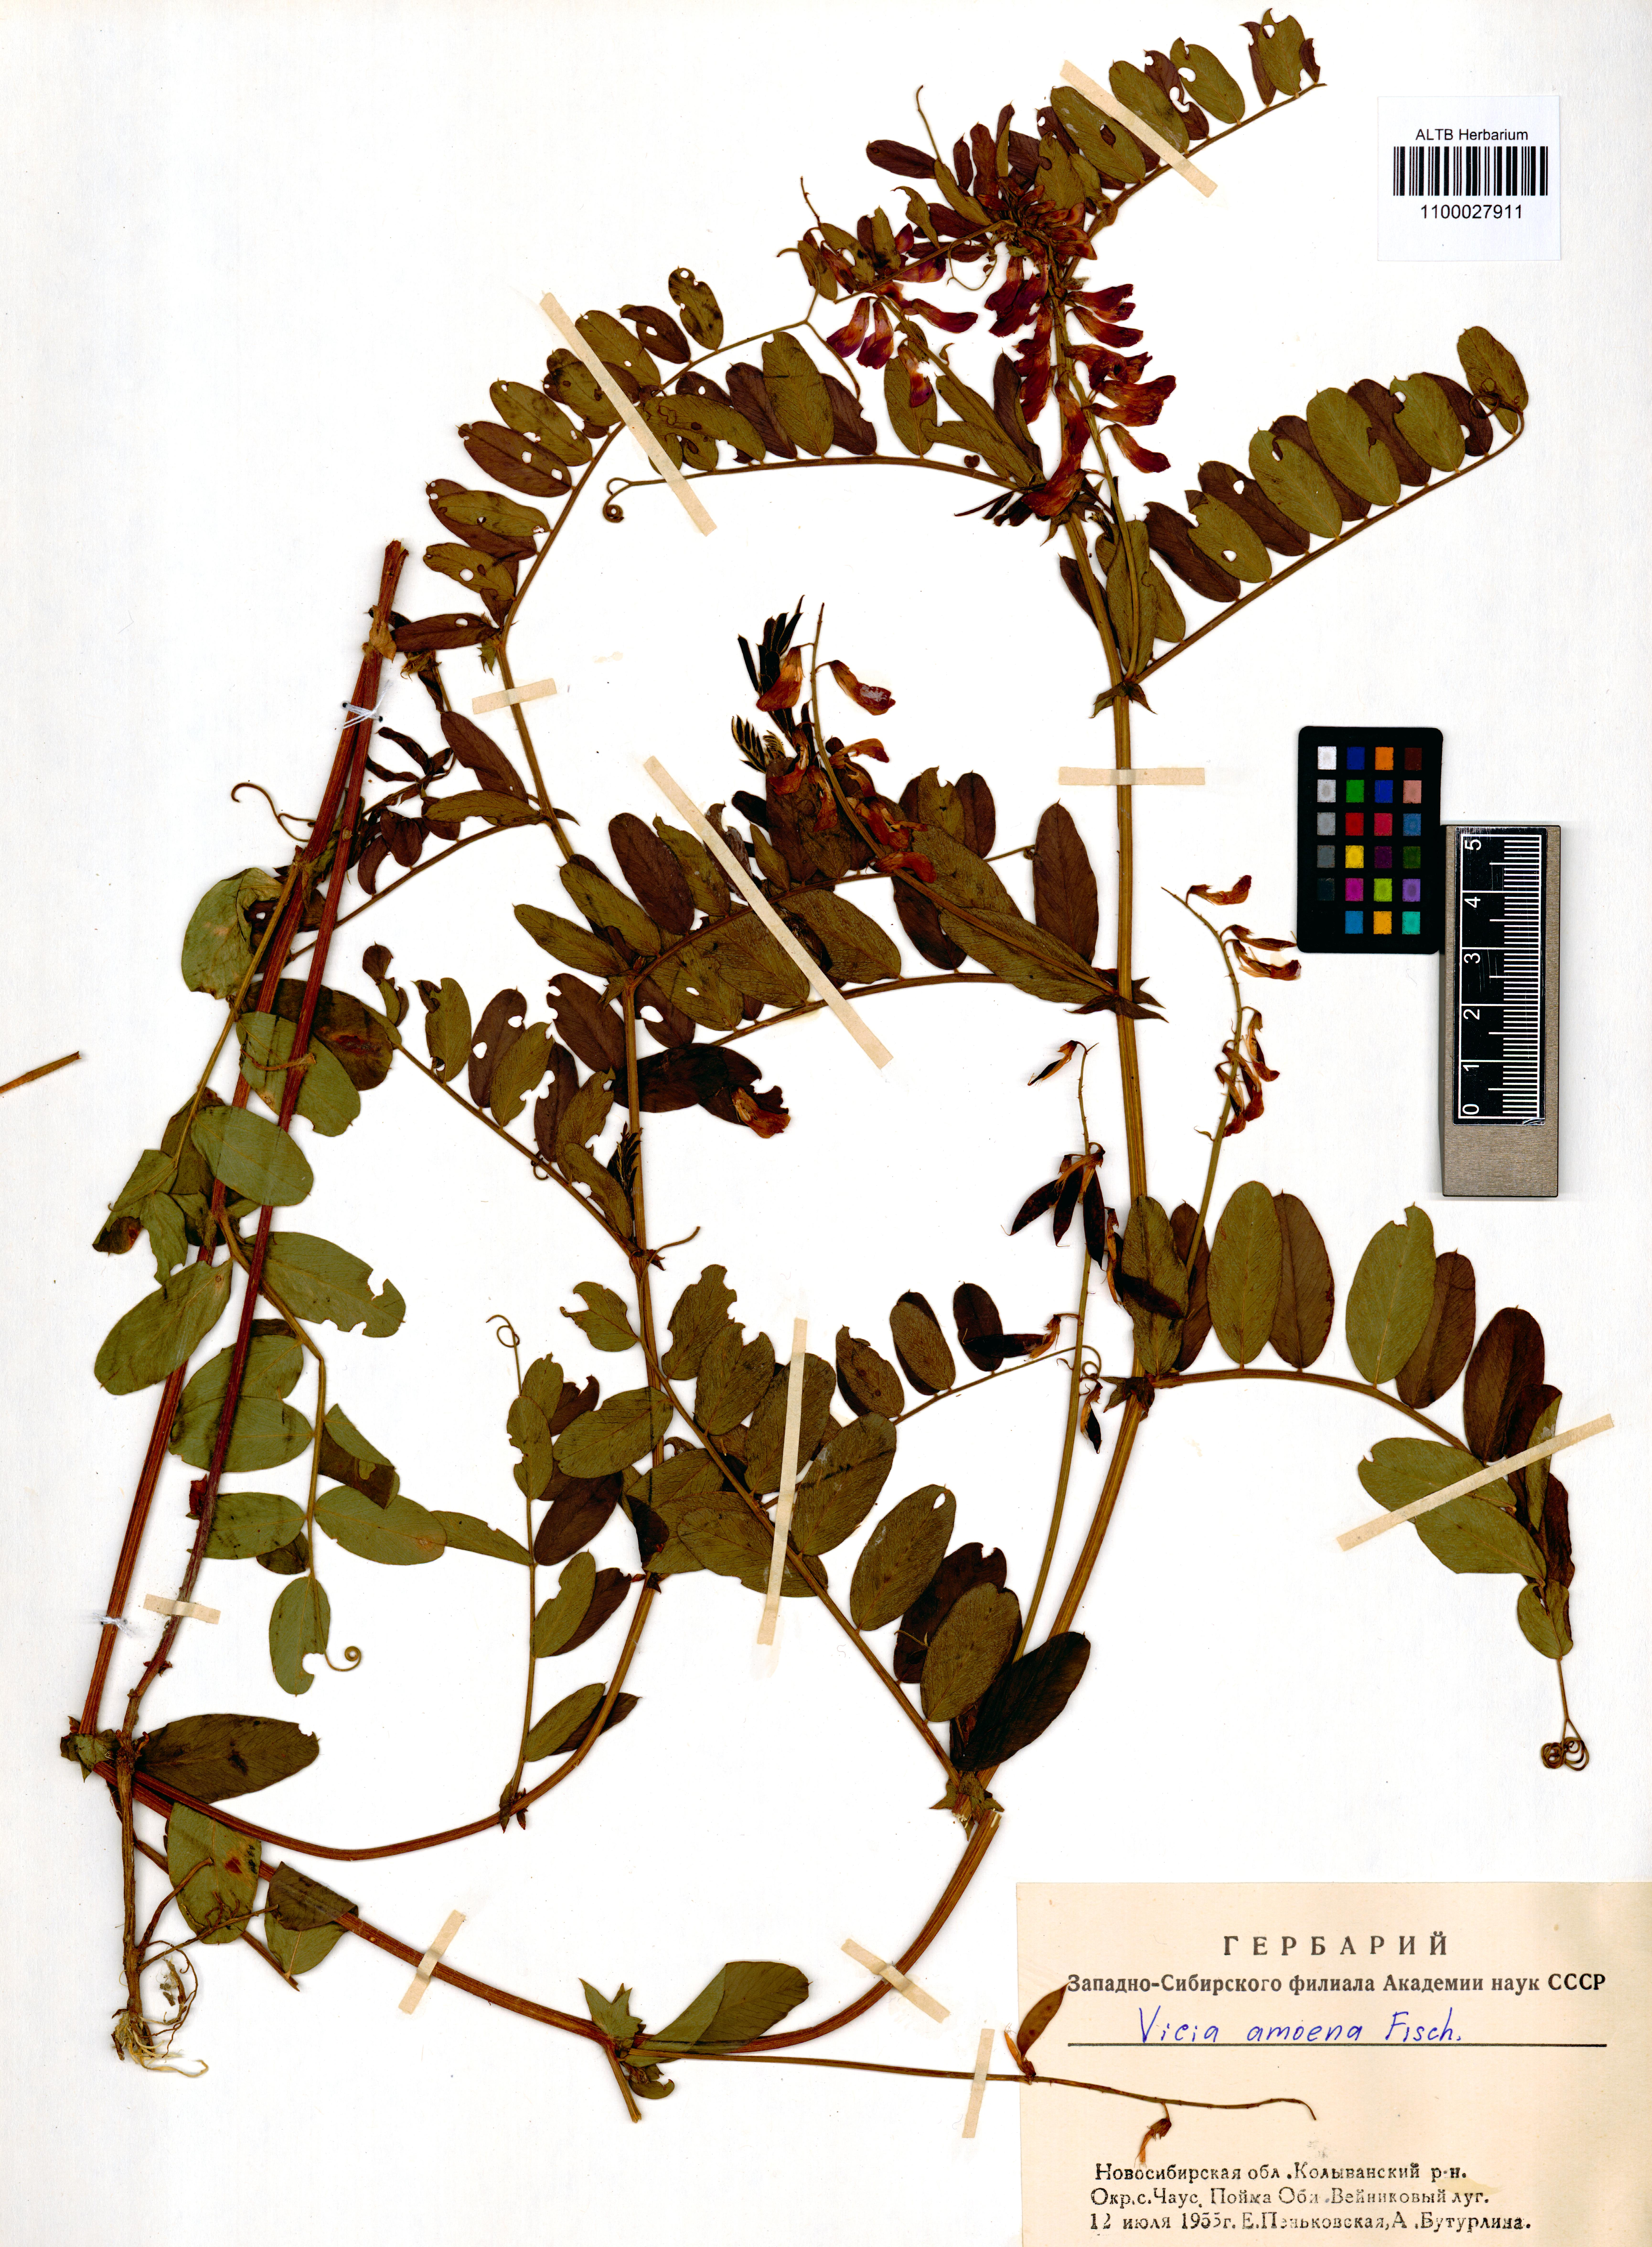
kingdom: Plantae
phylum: Tracheophyta
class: Magnoliopsida
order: Fabales
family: Fabaceae
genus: Vicia
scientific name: Vicia amoena
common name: Cheder ebs
